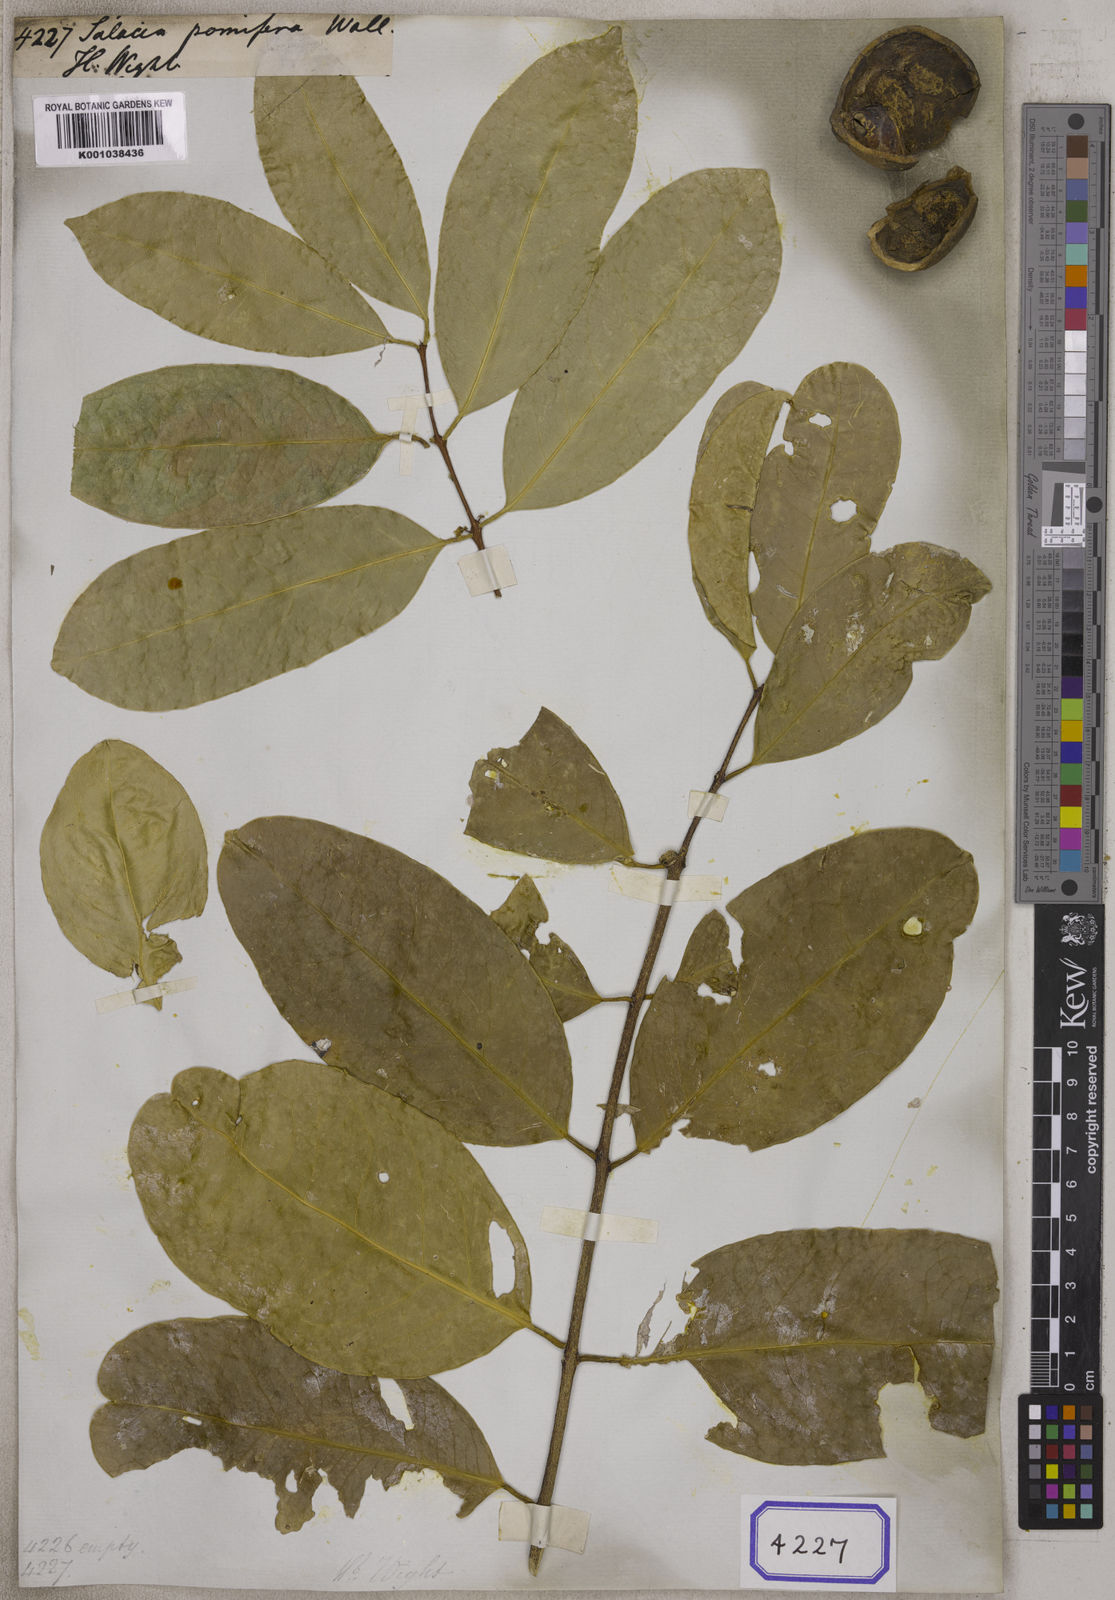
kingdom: Plantae
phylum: Tracheophyta
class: Magnoliopsida
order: Celastrales
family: Celastraceae
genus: Salacia
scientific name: Salacia
